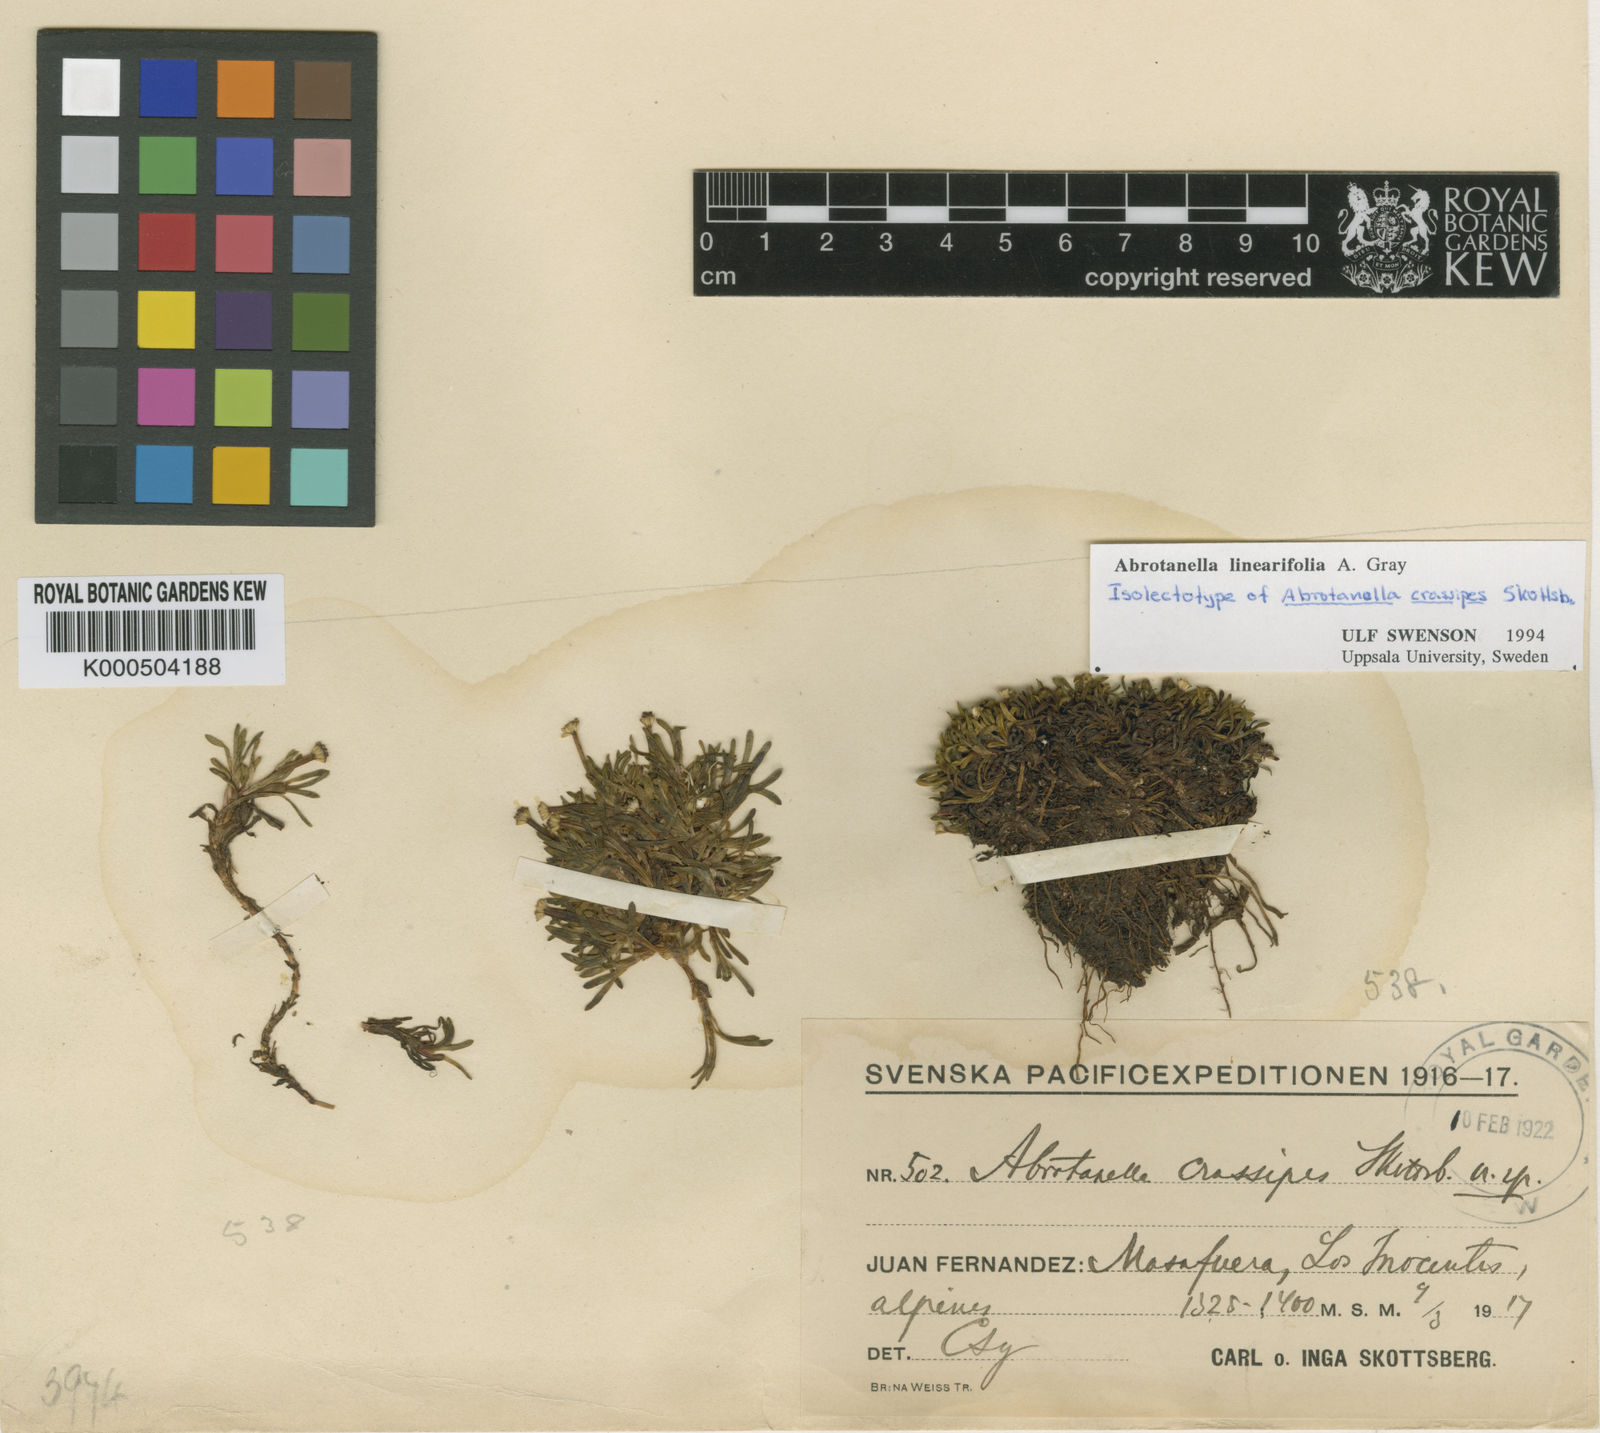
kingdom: Plantae
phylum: Tracheophyta
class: Magnoliopsida
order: Asterales
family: Asteraceae
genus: Abrotanella
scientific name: Abrotanella linearifolia
